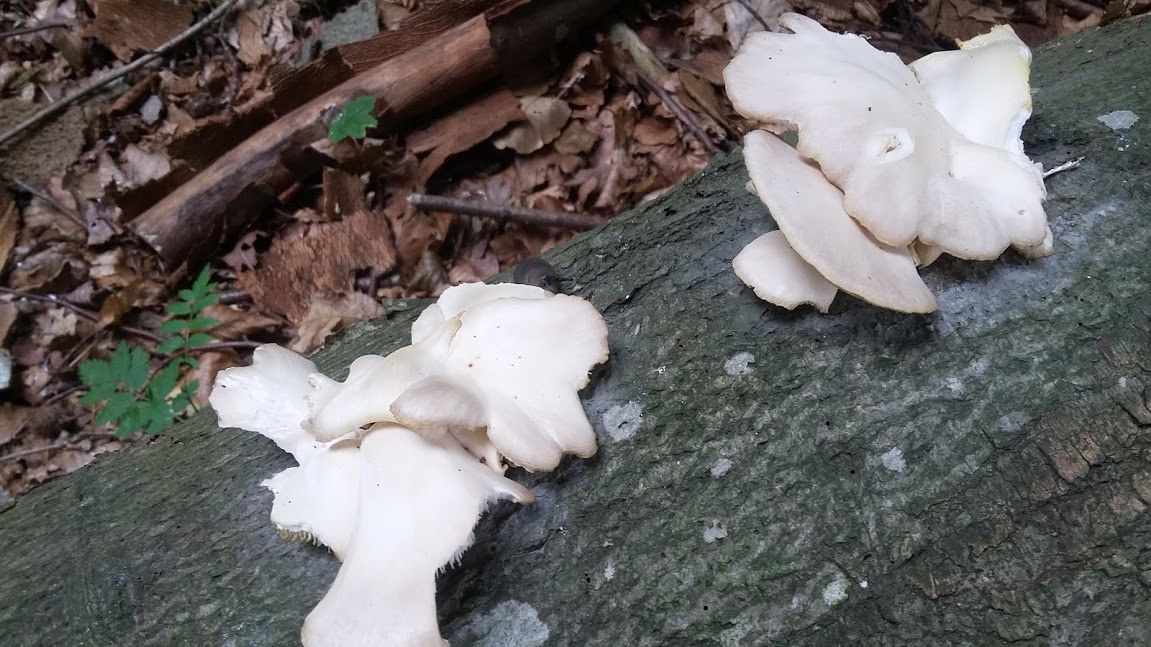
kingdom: Fungi
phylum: Basidiomycota
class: Agaricomycetes
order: Agaricales
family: Pleurotaceae
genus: Pleurotus
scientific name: Pleurotus pulmonarius
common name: sommer-østershat
